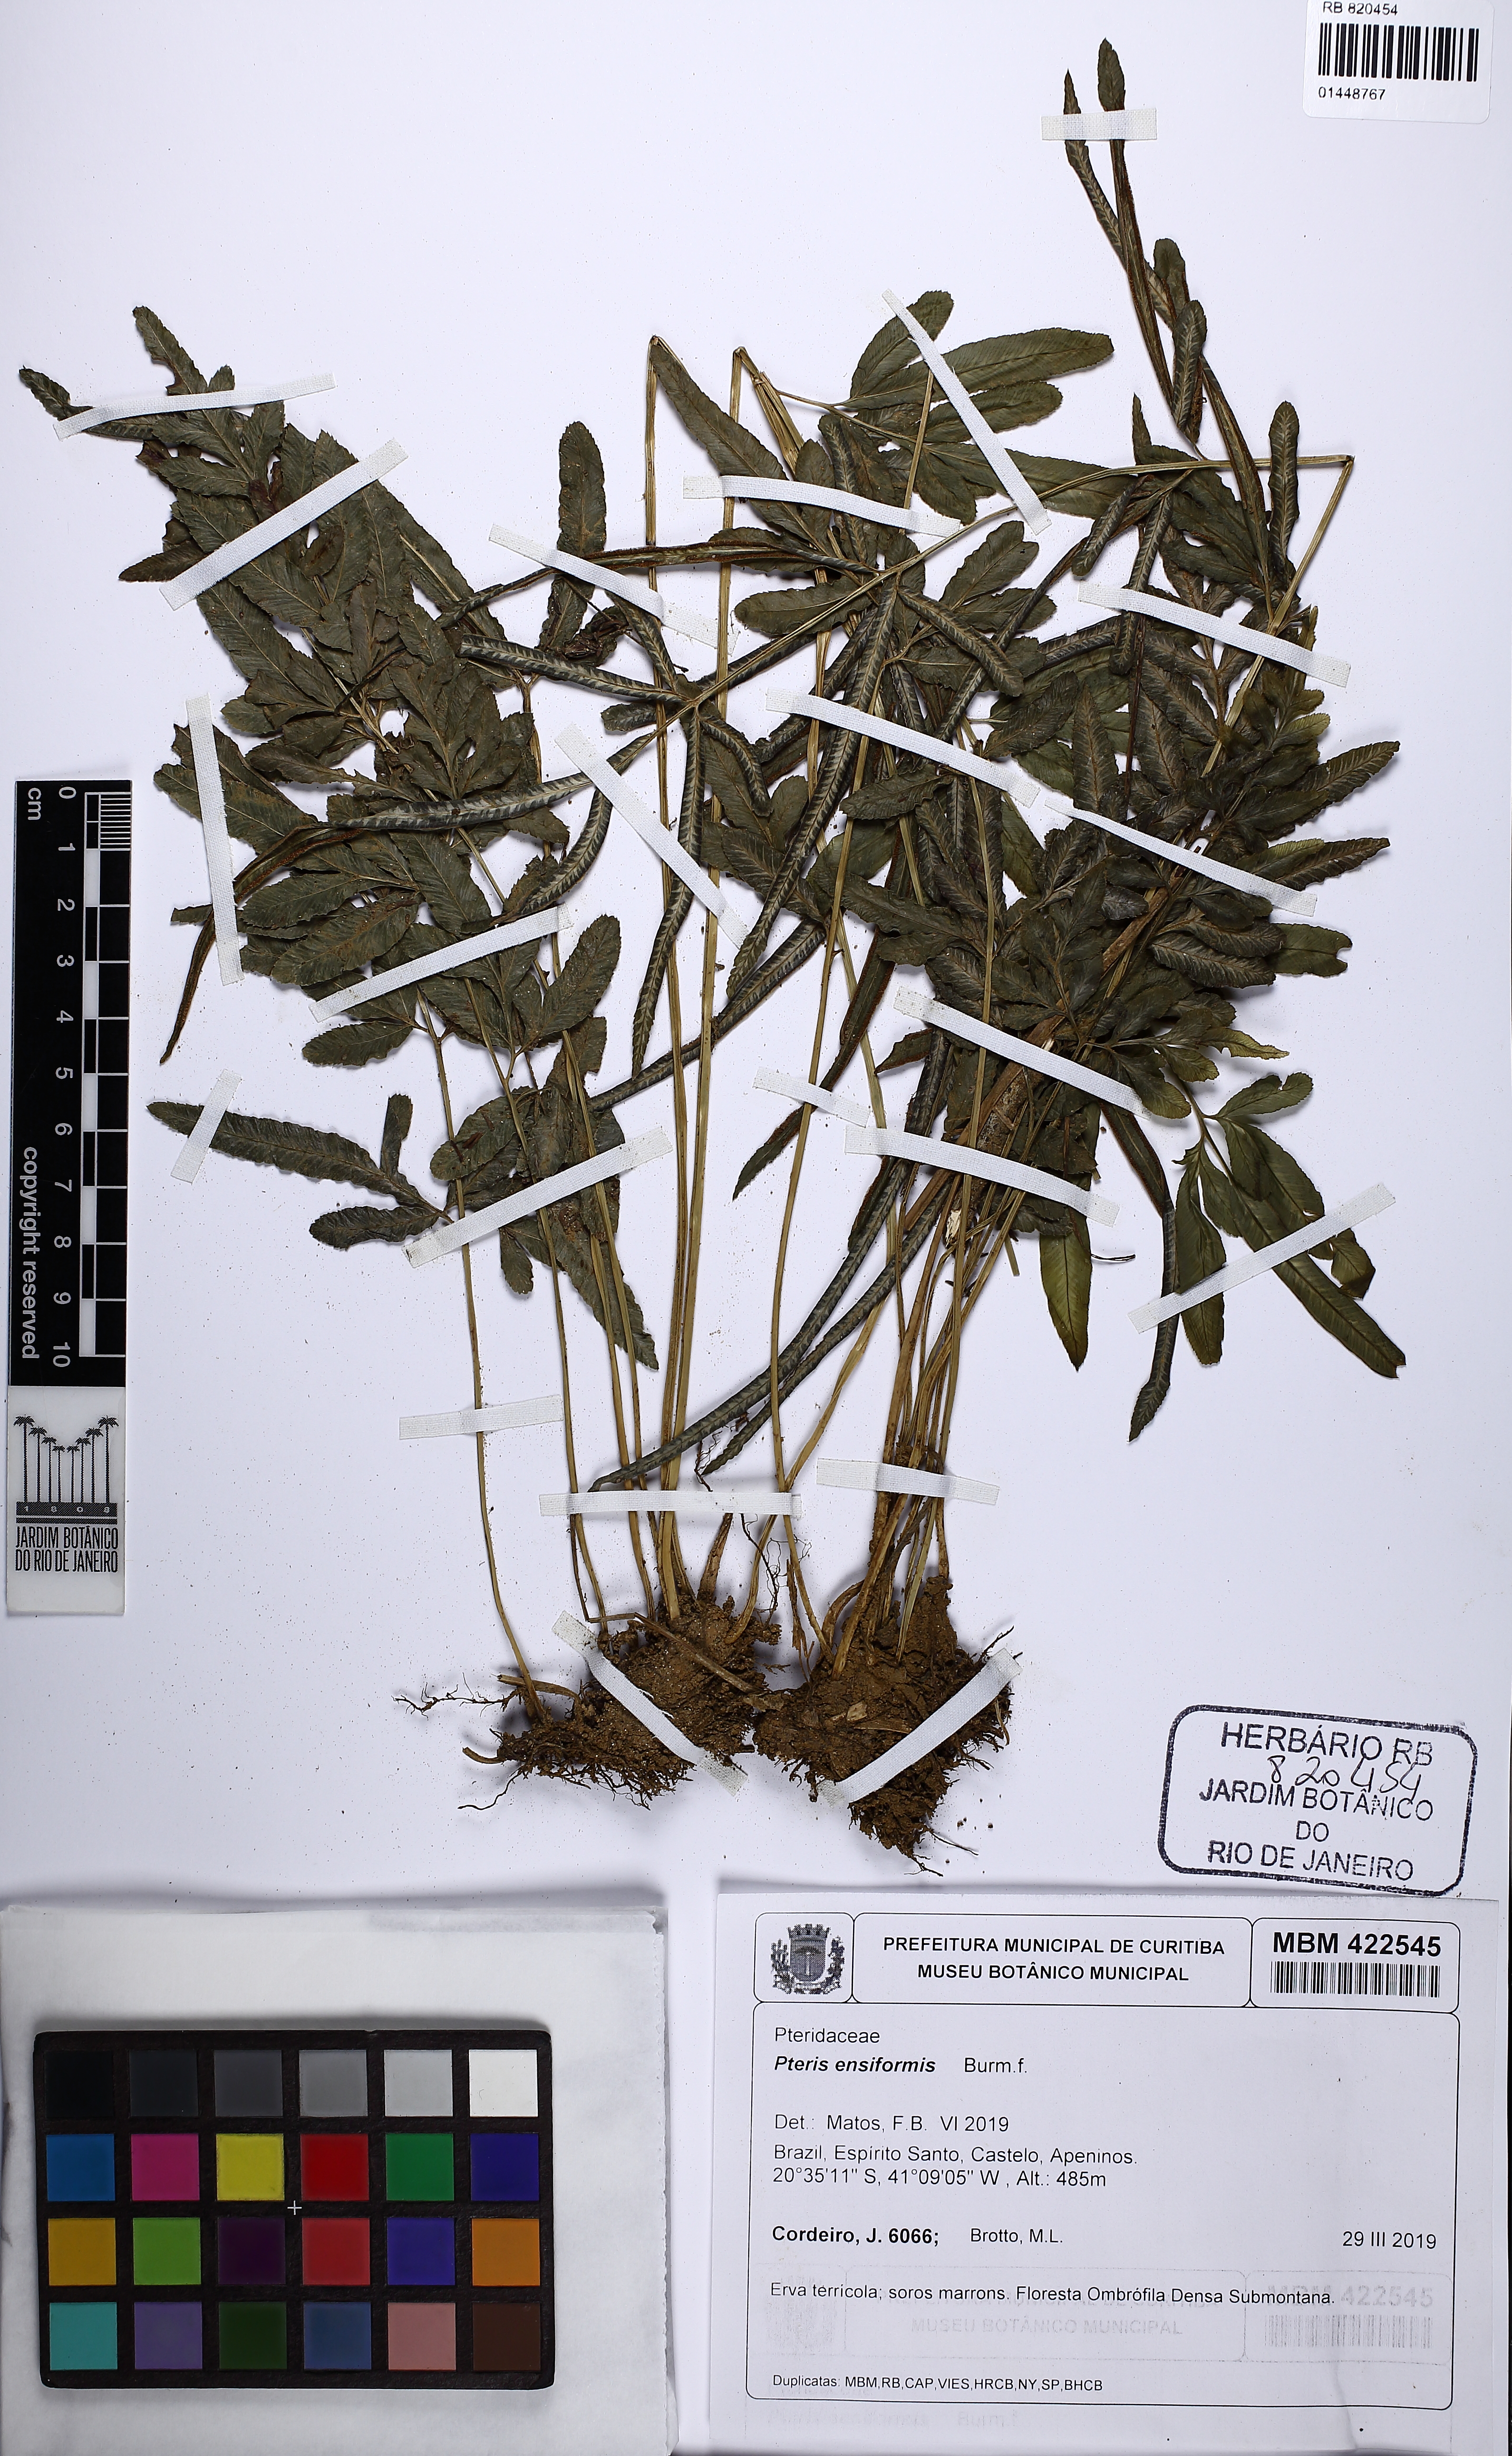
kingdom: Plantae
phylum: Tracheophyta
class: Polypodiopsida
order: Polypodiales
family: Pteridaceae
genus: Pteris
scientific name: Pteris ensiformis
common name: Sword brake
